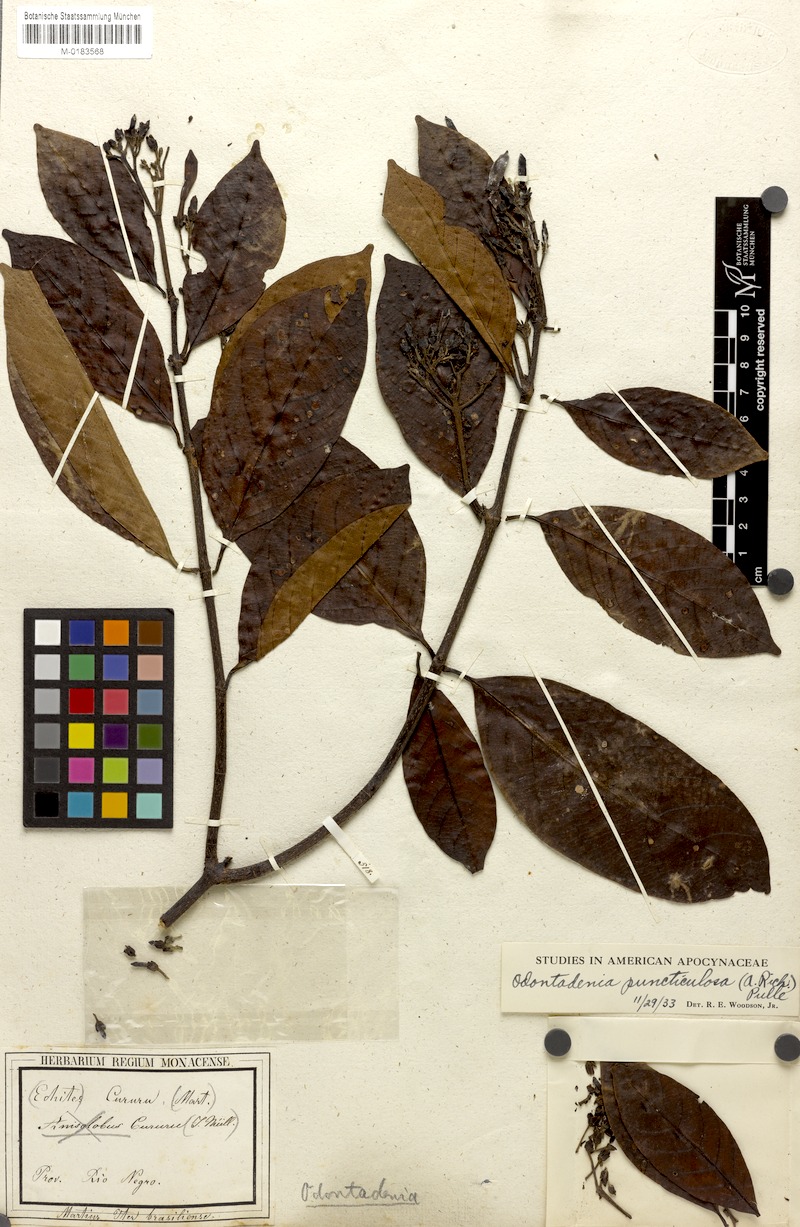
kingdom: Plantae
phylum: Tracheophyta
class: Magnoliopsida
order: Gentianales
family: Apocynaceae
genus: Odontadenia
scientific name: Odontadenia puncticulosa
